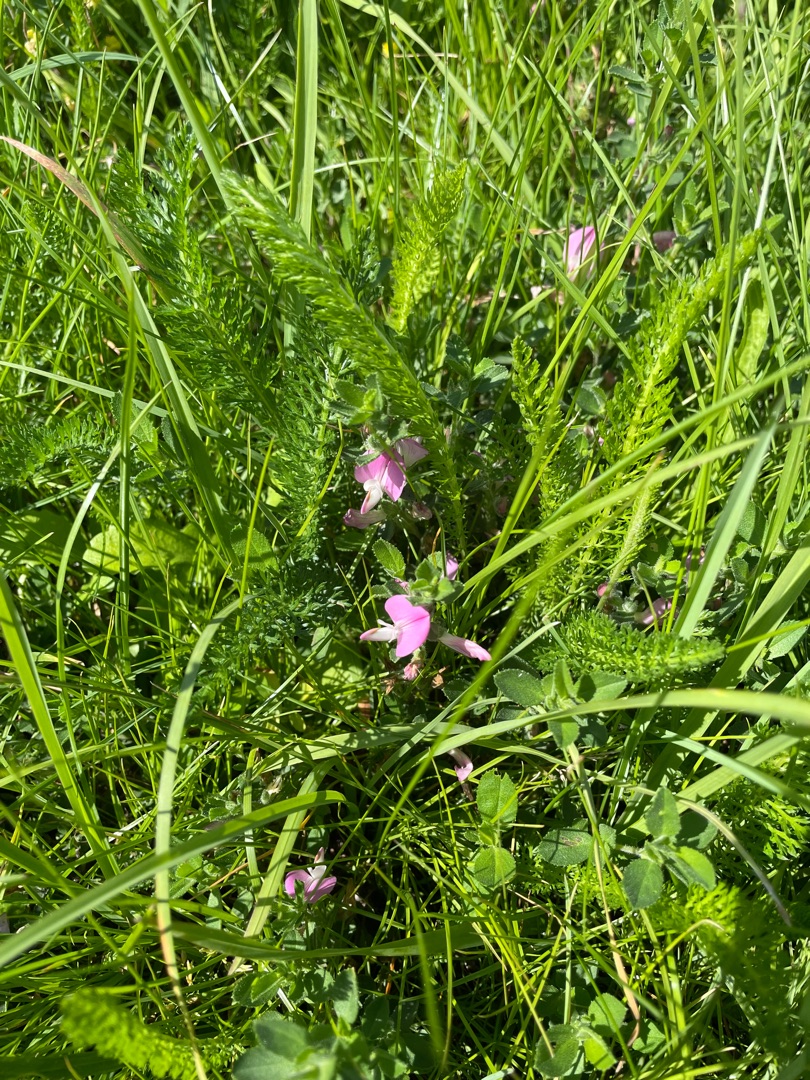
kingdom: Plantae
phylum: Tracheophyta
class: Magnoliopsida
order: Fabales
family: Fabaceae
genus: Ononis
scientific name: Ononis spinosa
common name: Mark-krageklo
